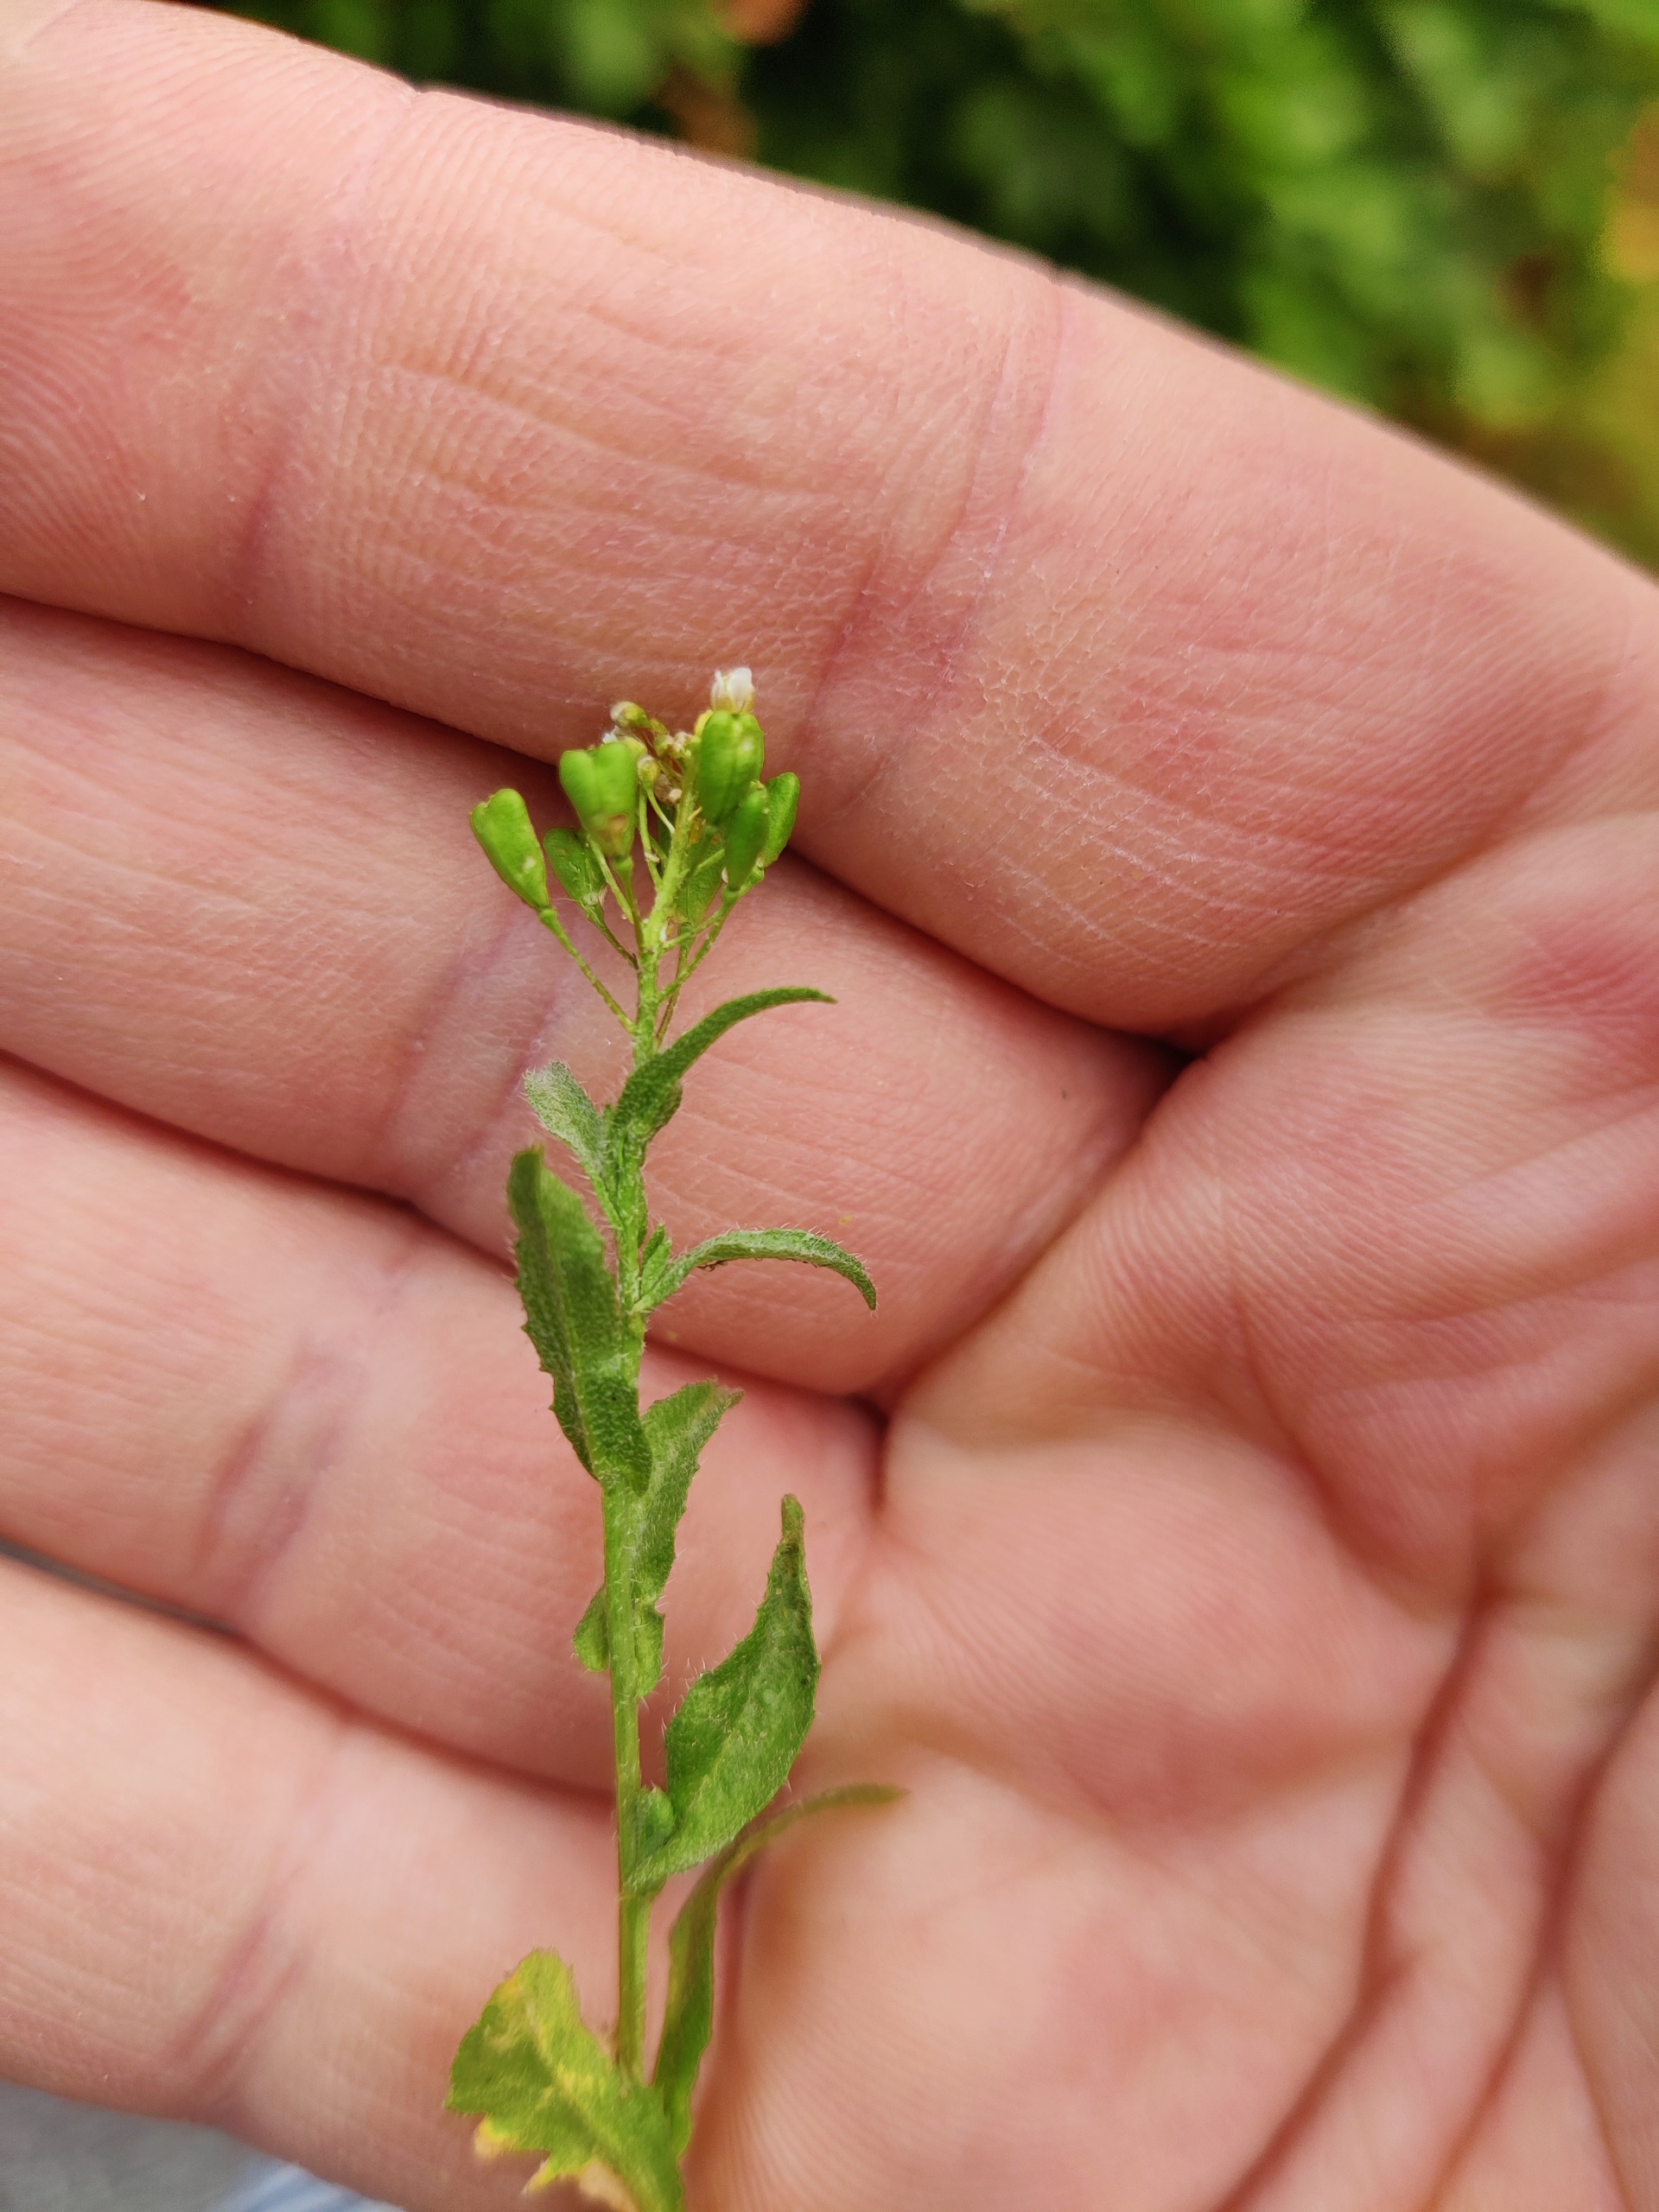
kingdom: Plantae
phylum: Tracheophyta
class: Magnoliopsida
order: Brassicales
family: Brassicaceae
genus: Capsella
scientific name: Capsella bursa-pastoris
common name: Hyrdetaske
